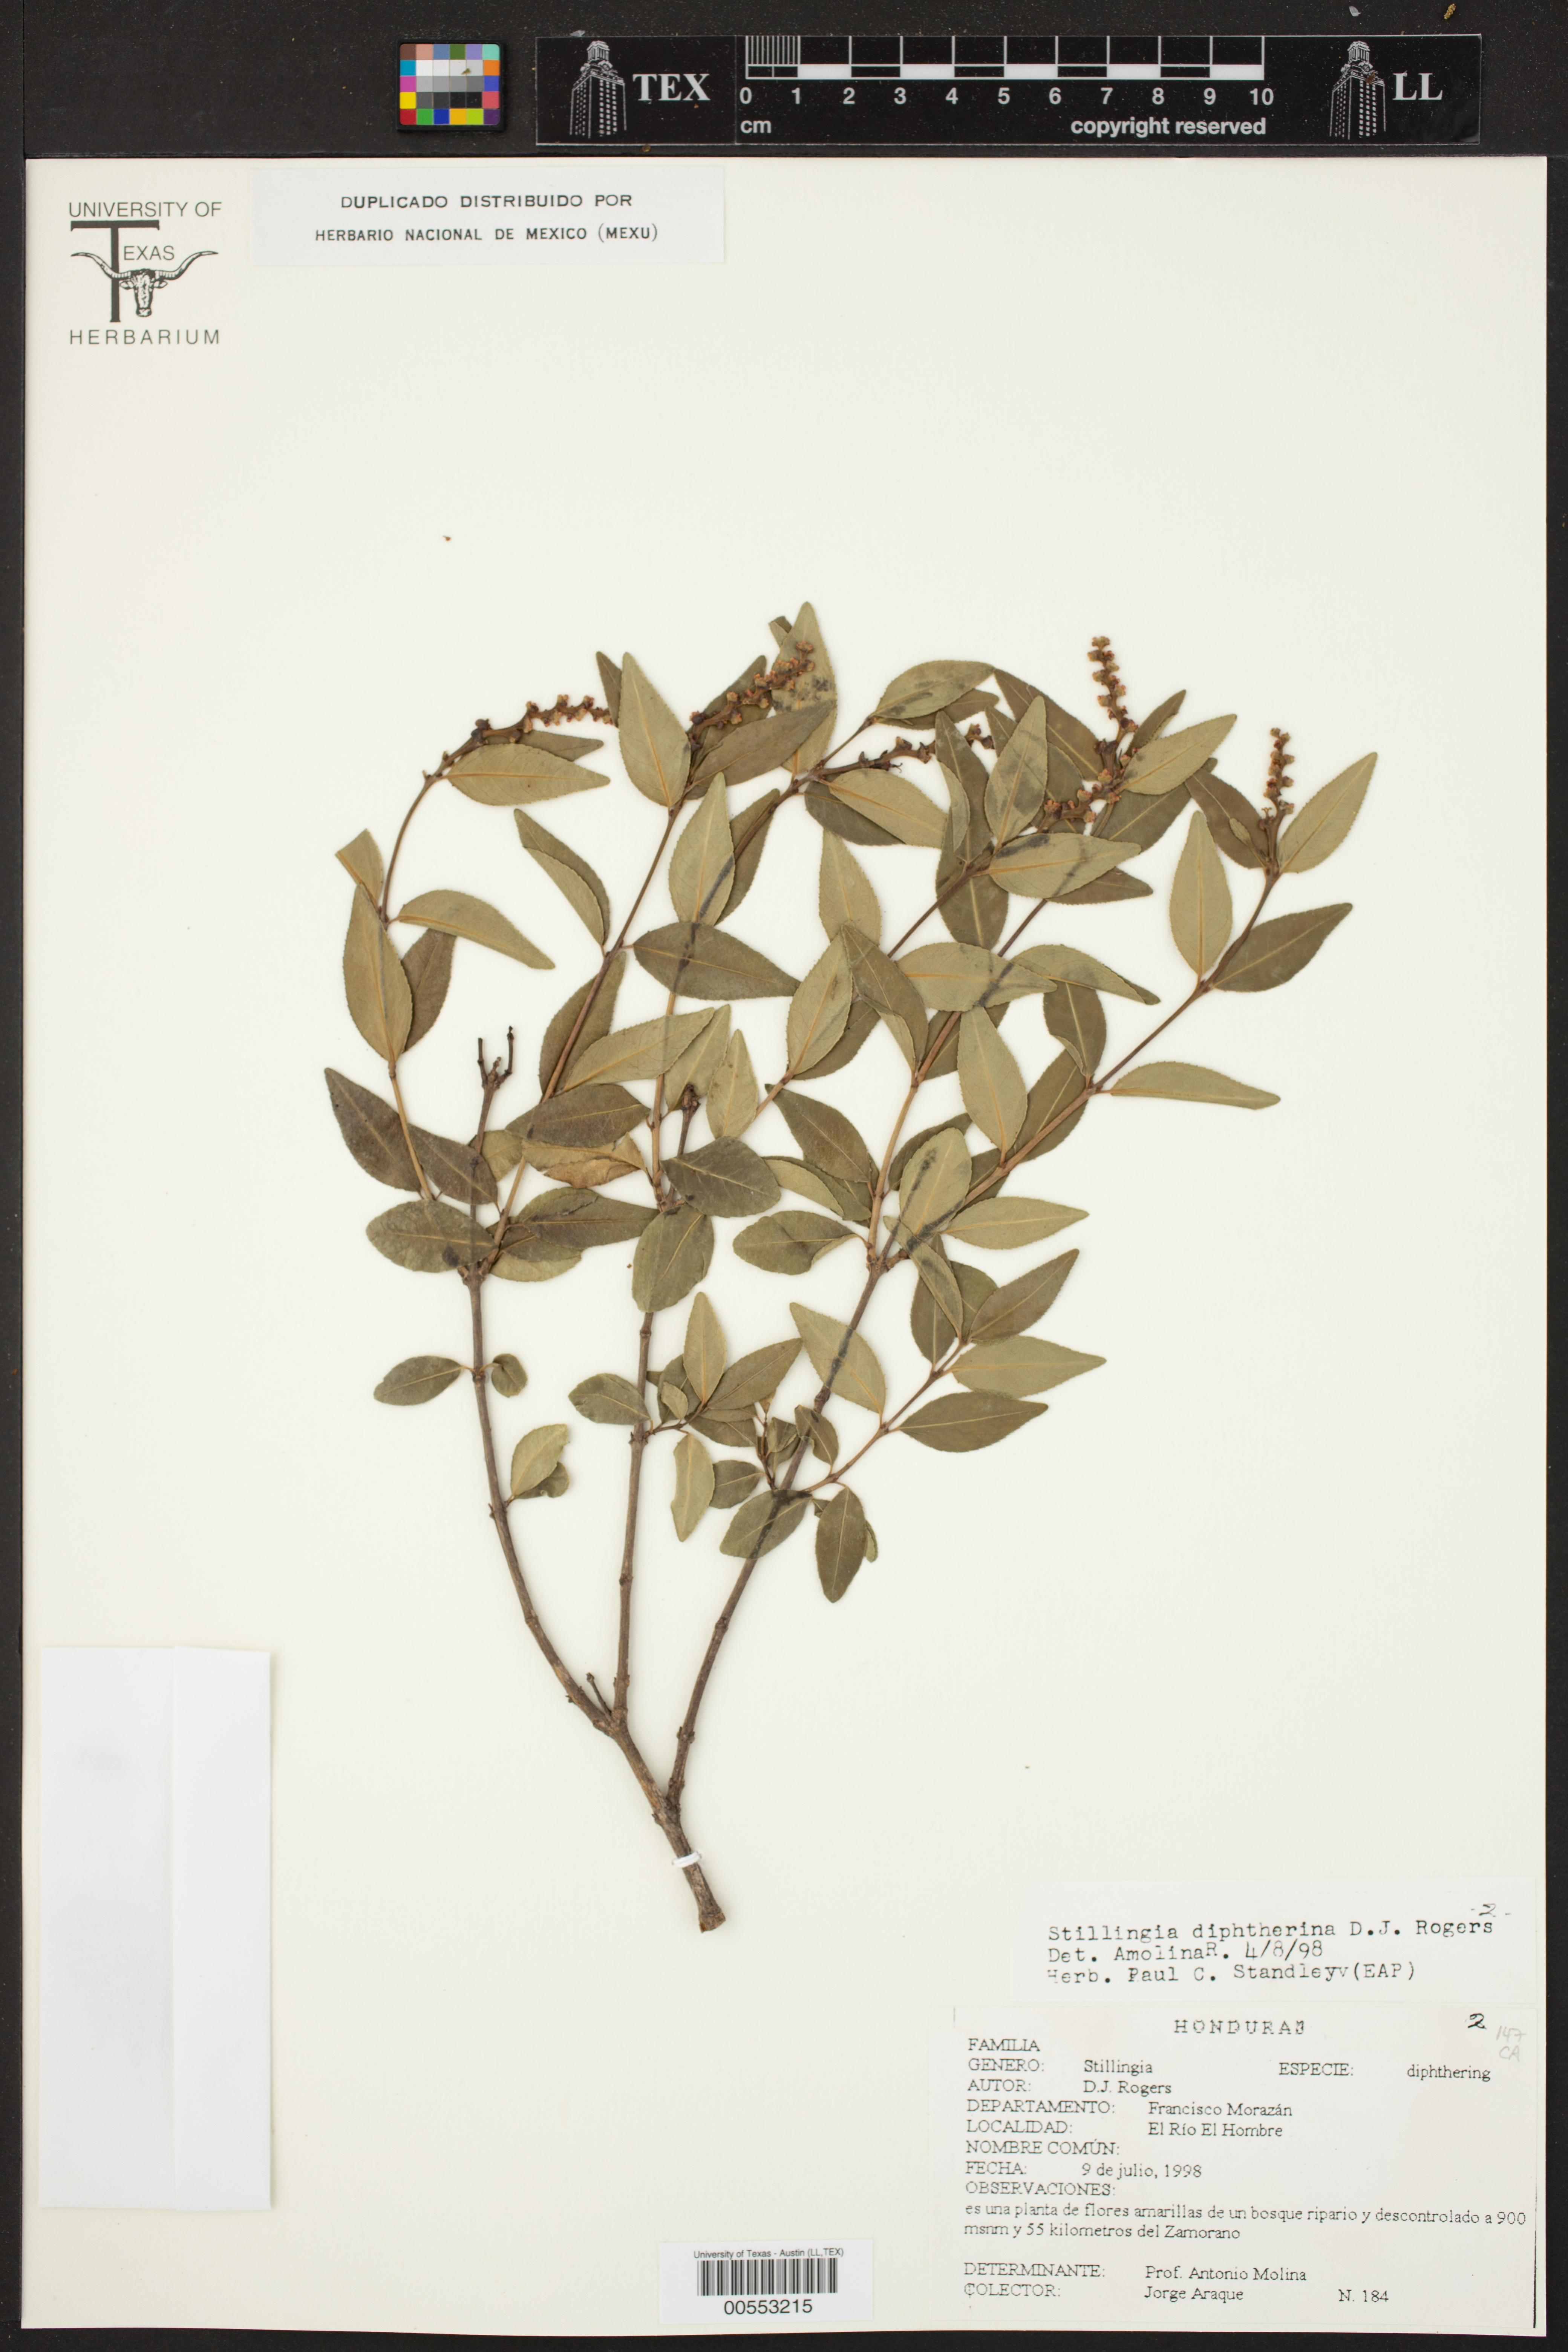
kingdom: Plantae
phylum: Tracheophyta
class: Magnoliopsida
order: Malpighiales
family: Euphorbiaceae
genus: Stillingia
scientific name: Stillingia diphtherina
